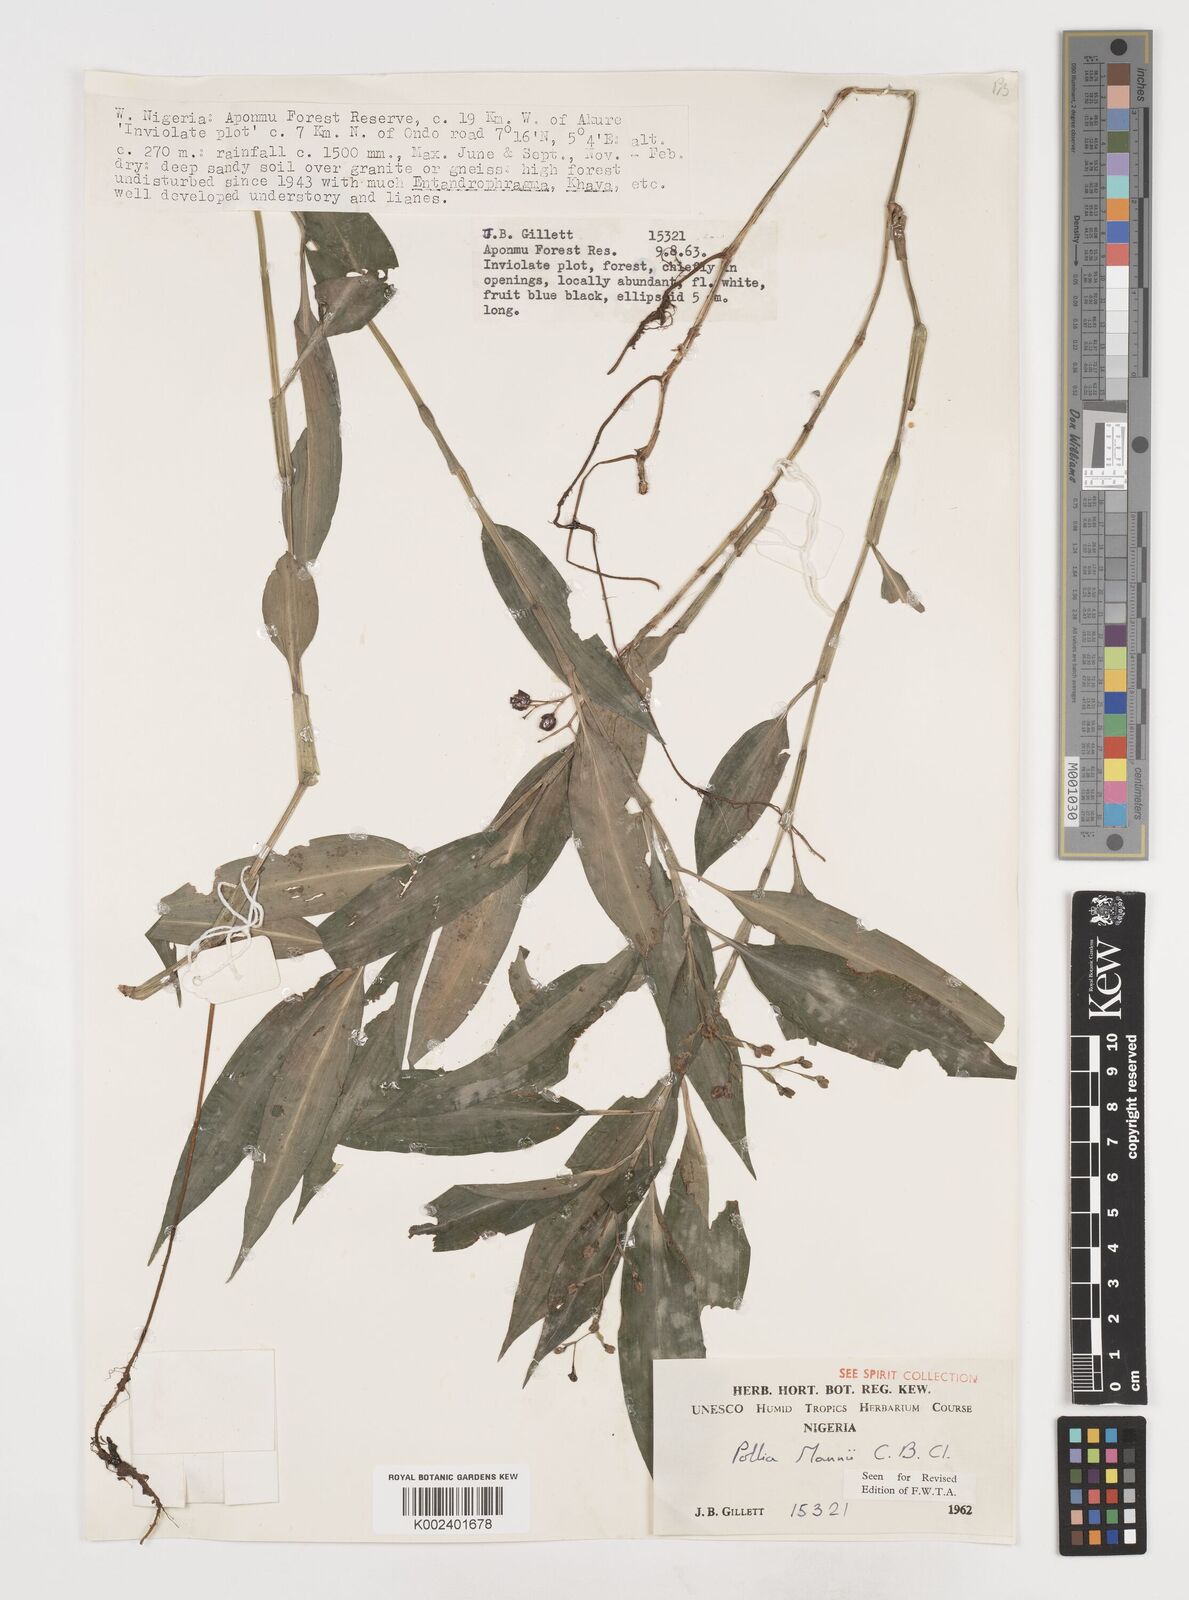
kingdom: Plantae
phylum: Tracheophyta
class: Liliopsida
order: Commelinales
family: Commelinaceae
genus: Pollia
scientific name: Pollia mannii
